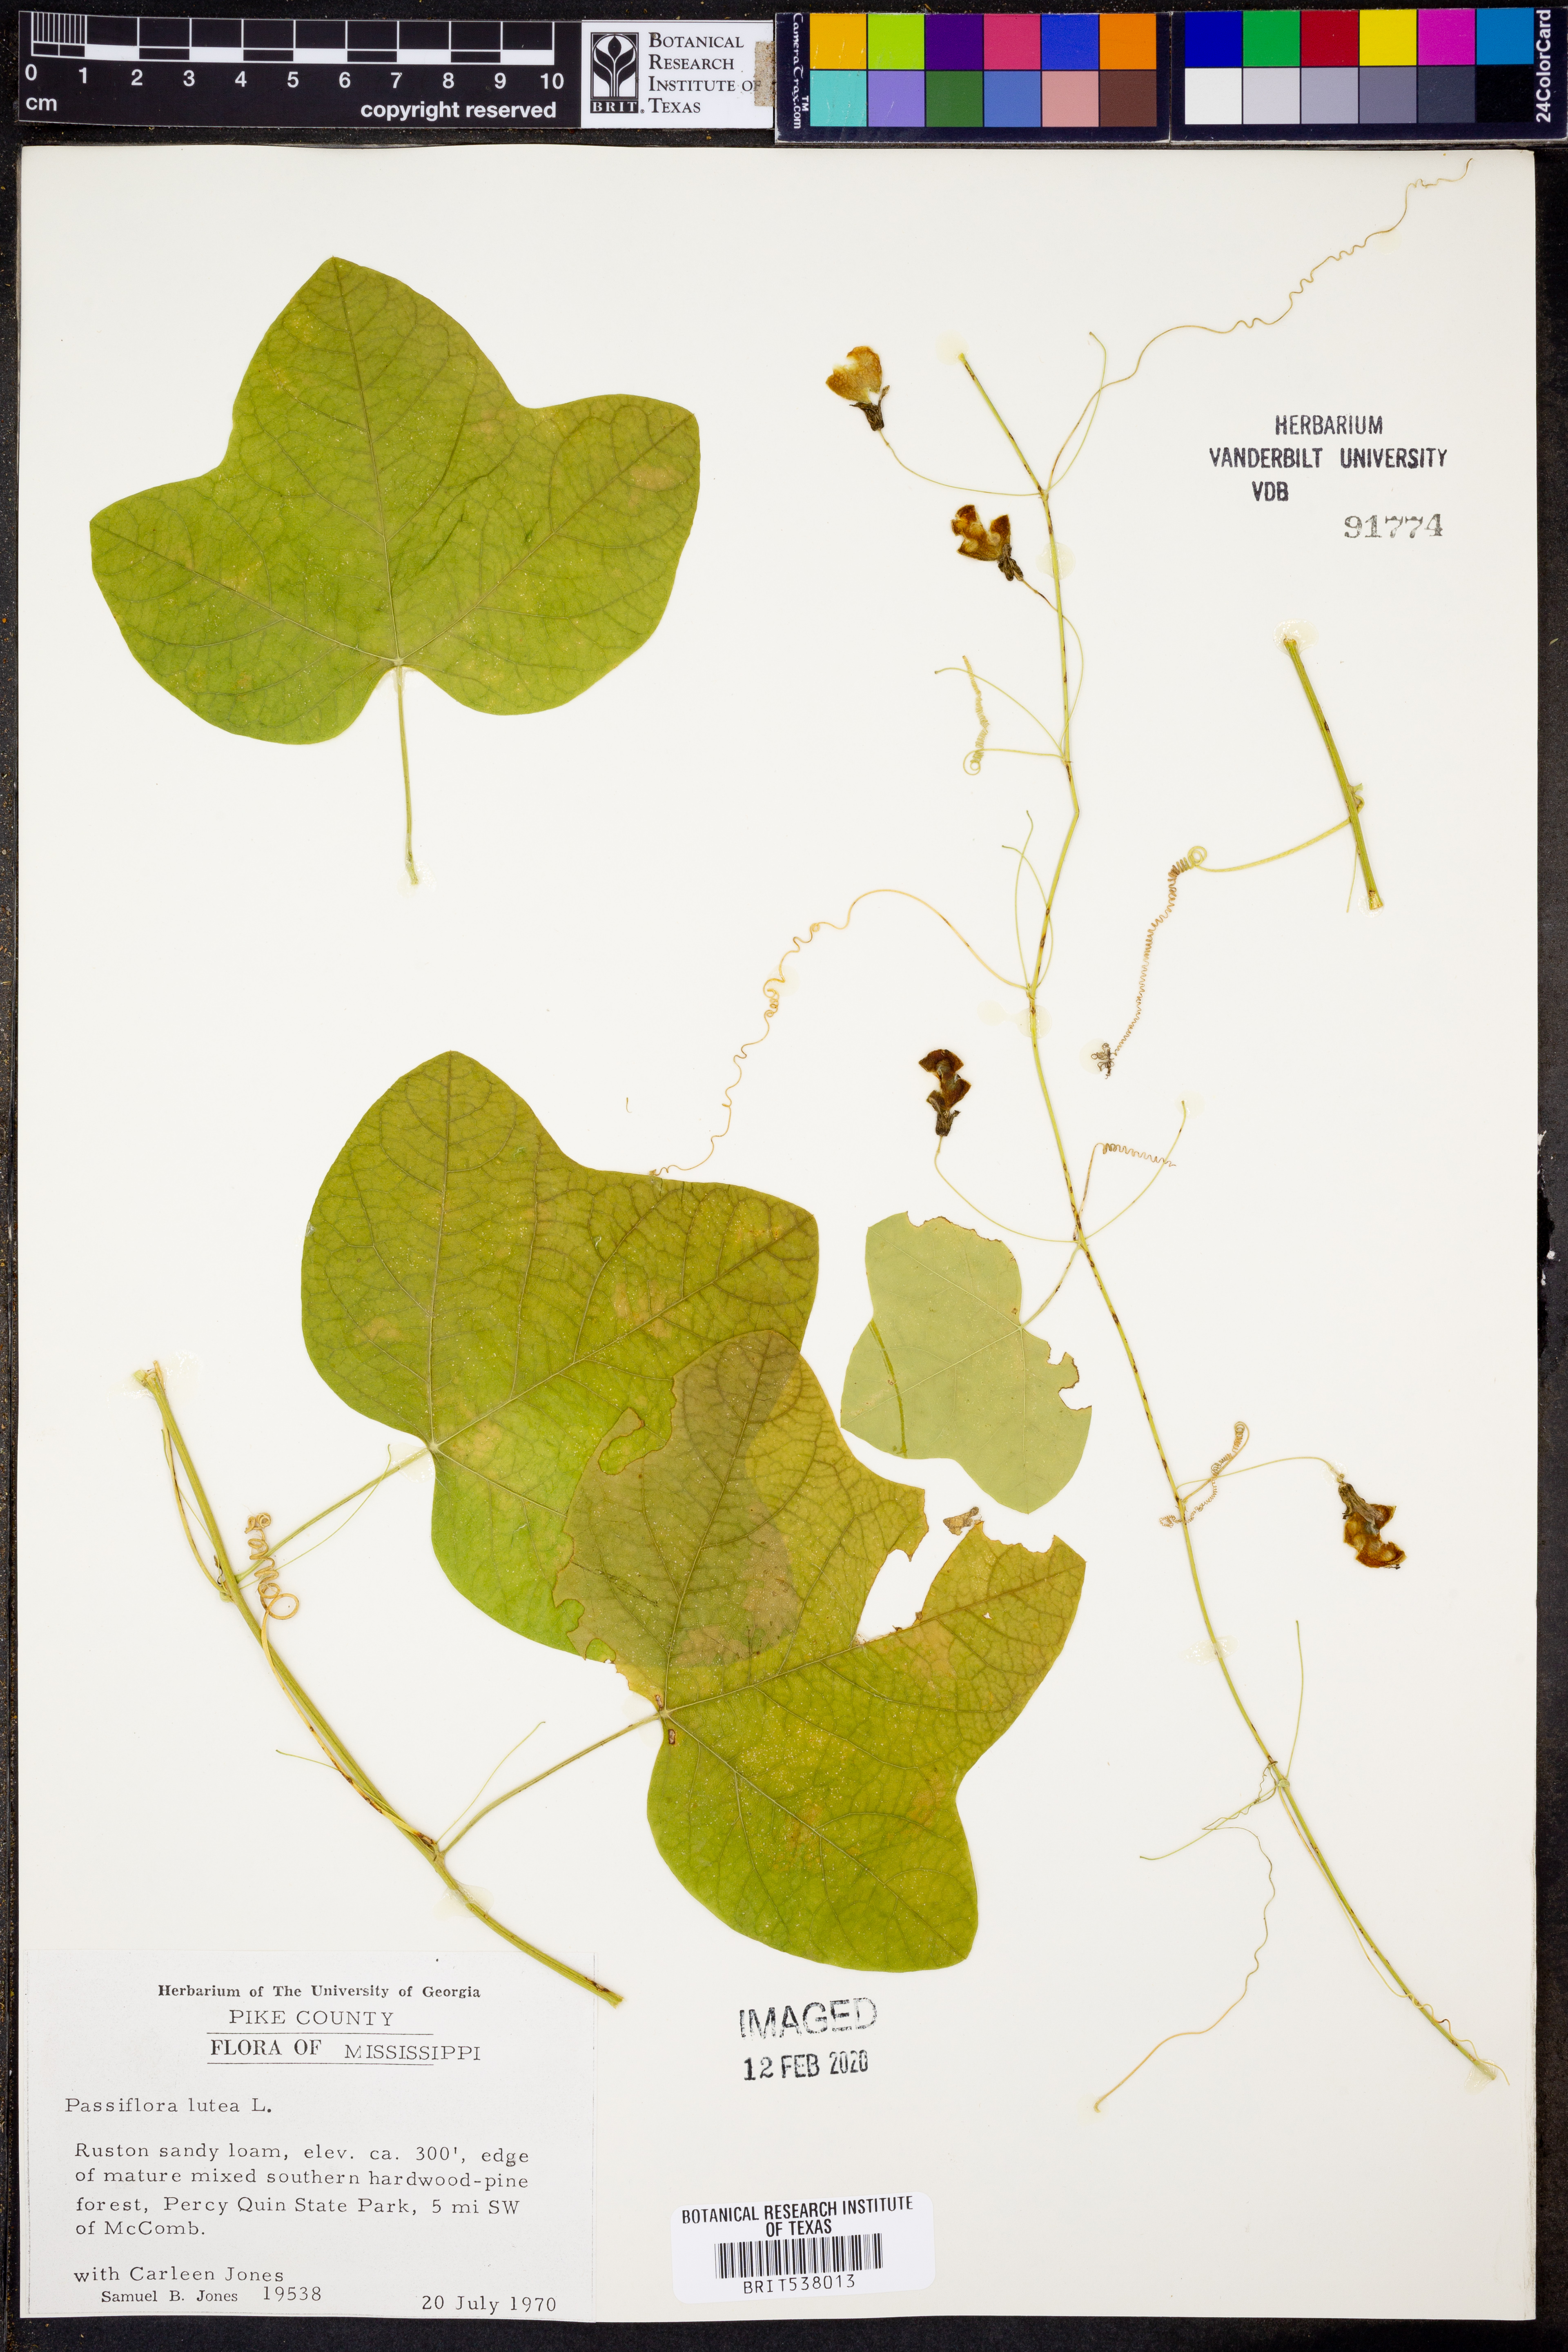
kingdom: Plantae
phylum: Tracheophyta
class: Magnoliopsida
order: Malpighiales
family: Passifloraceae
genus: Passiflora
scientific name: Passiflora lutea
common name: Yellow passionflower
